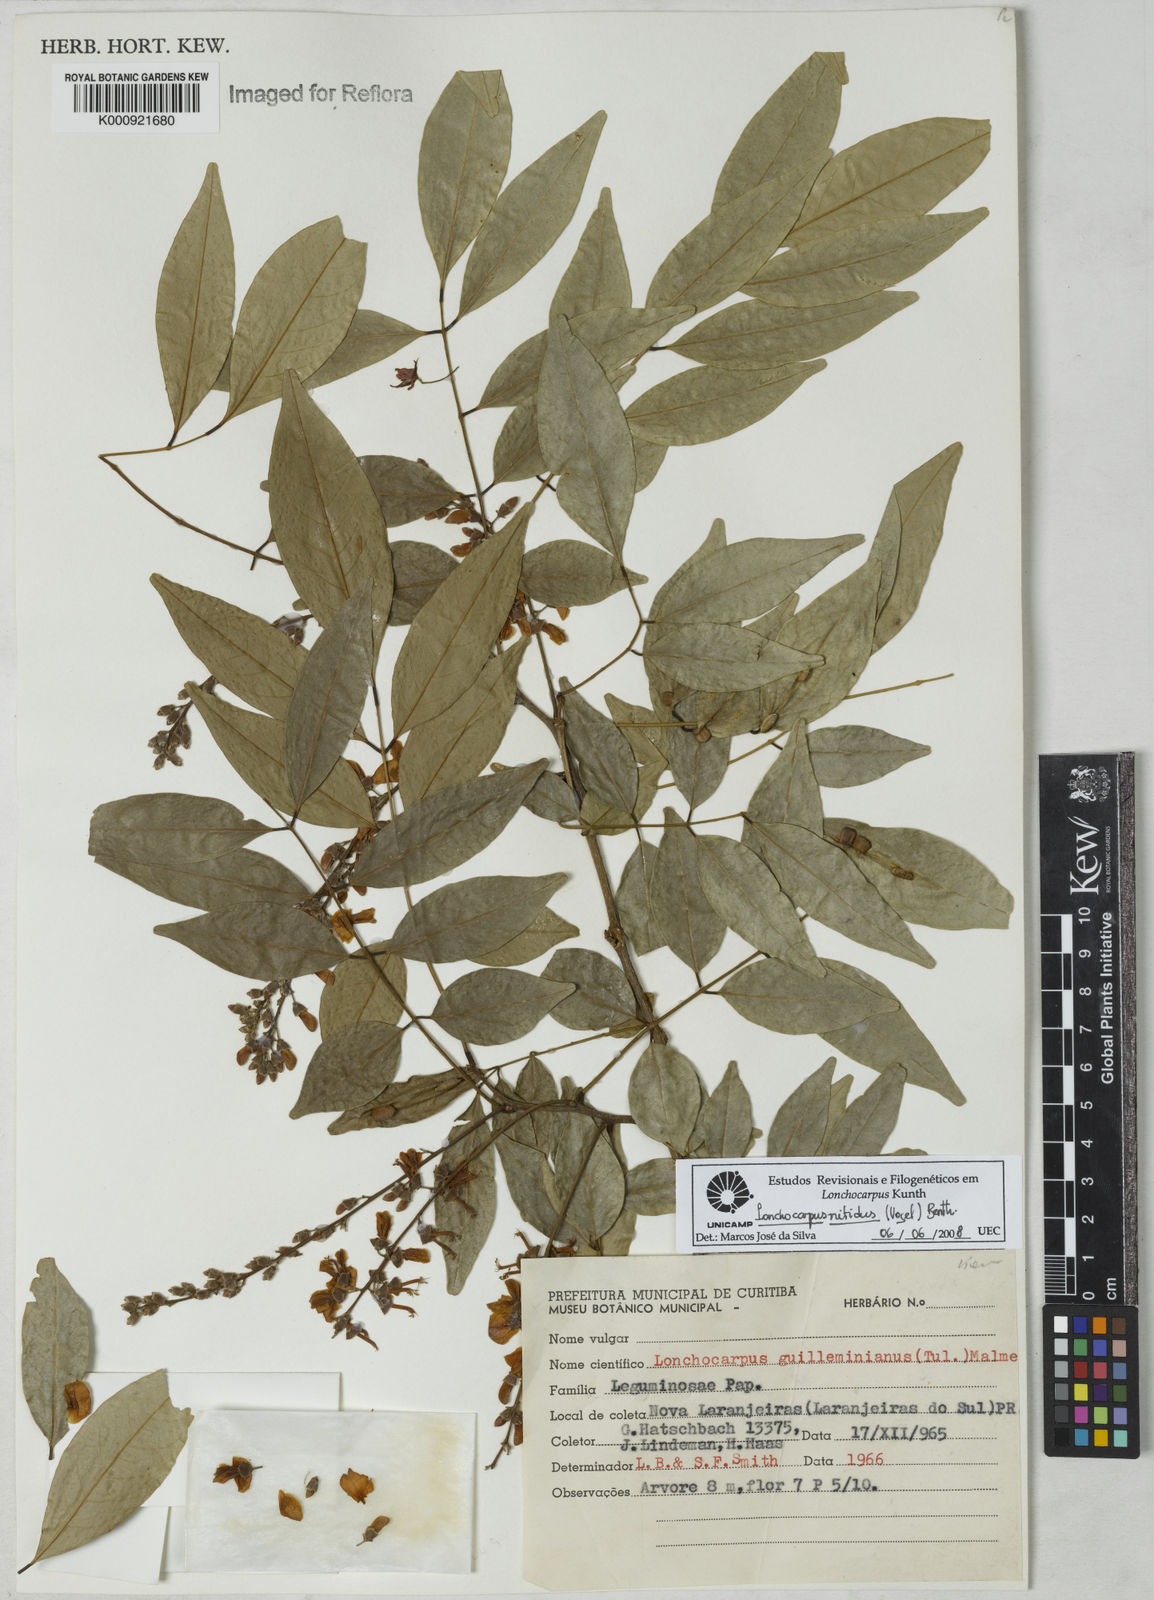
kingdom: Plantae
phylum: Tracheophyta
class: Magnoliopsida
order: Fabales
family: Fabaceae
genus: Lonchocarpus
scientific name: Lonchocarpus nitidus
